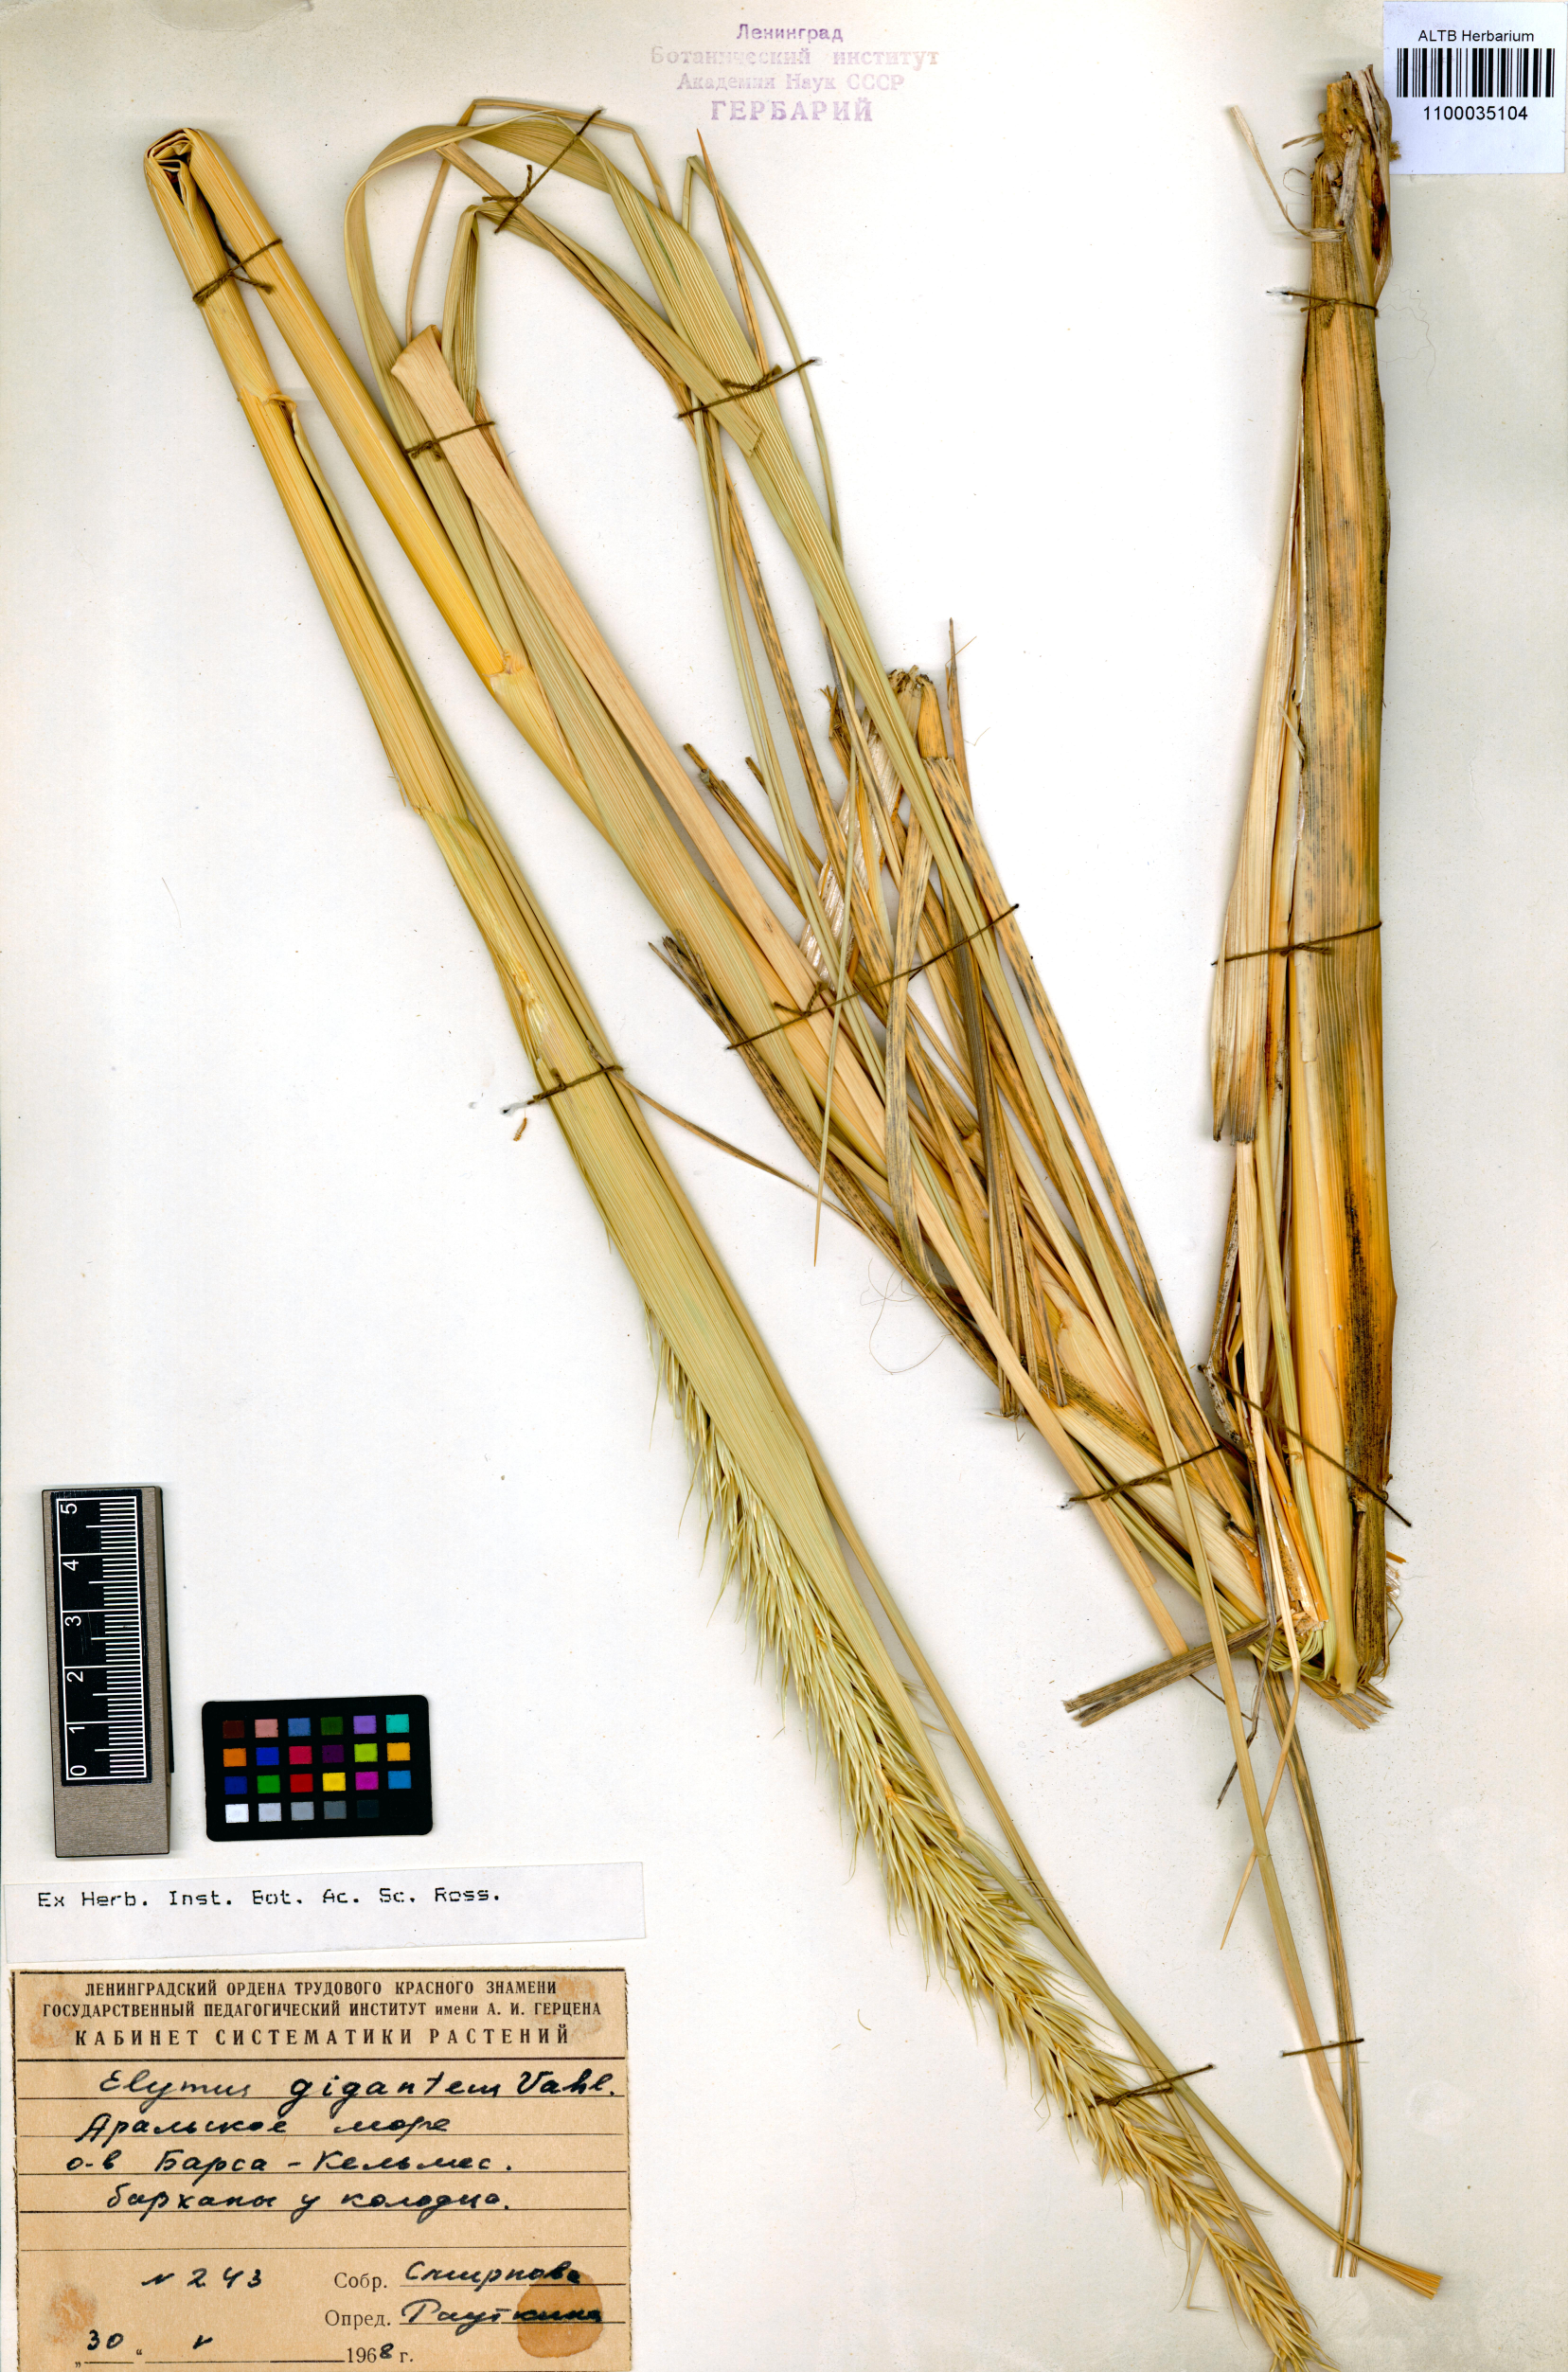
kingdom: Plantae
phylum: Tracheophyta
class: Liliopsida
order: Poales
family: Poaceae
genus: Leymus
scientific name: Leymus racemosus
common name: Mammoth wildrye
